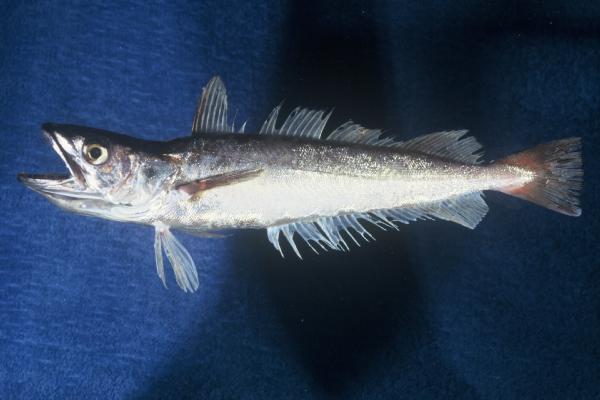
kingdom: Animalia
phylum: Chordata
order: Gadiformes
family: Merlucciidae
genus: Merluccius
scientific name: Merluccius capensis
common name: Cape hake
